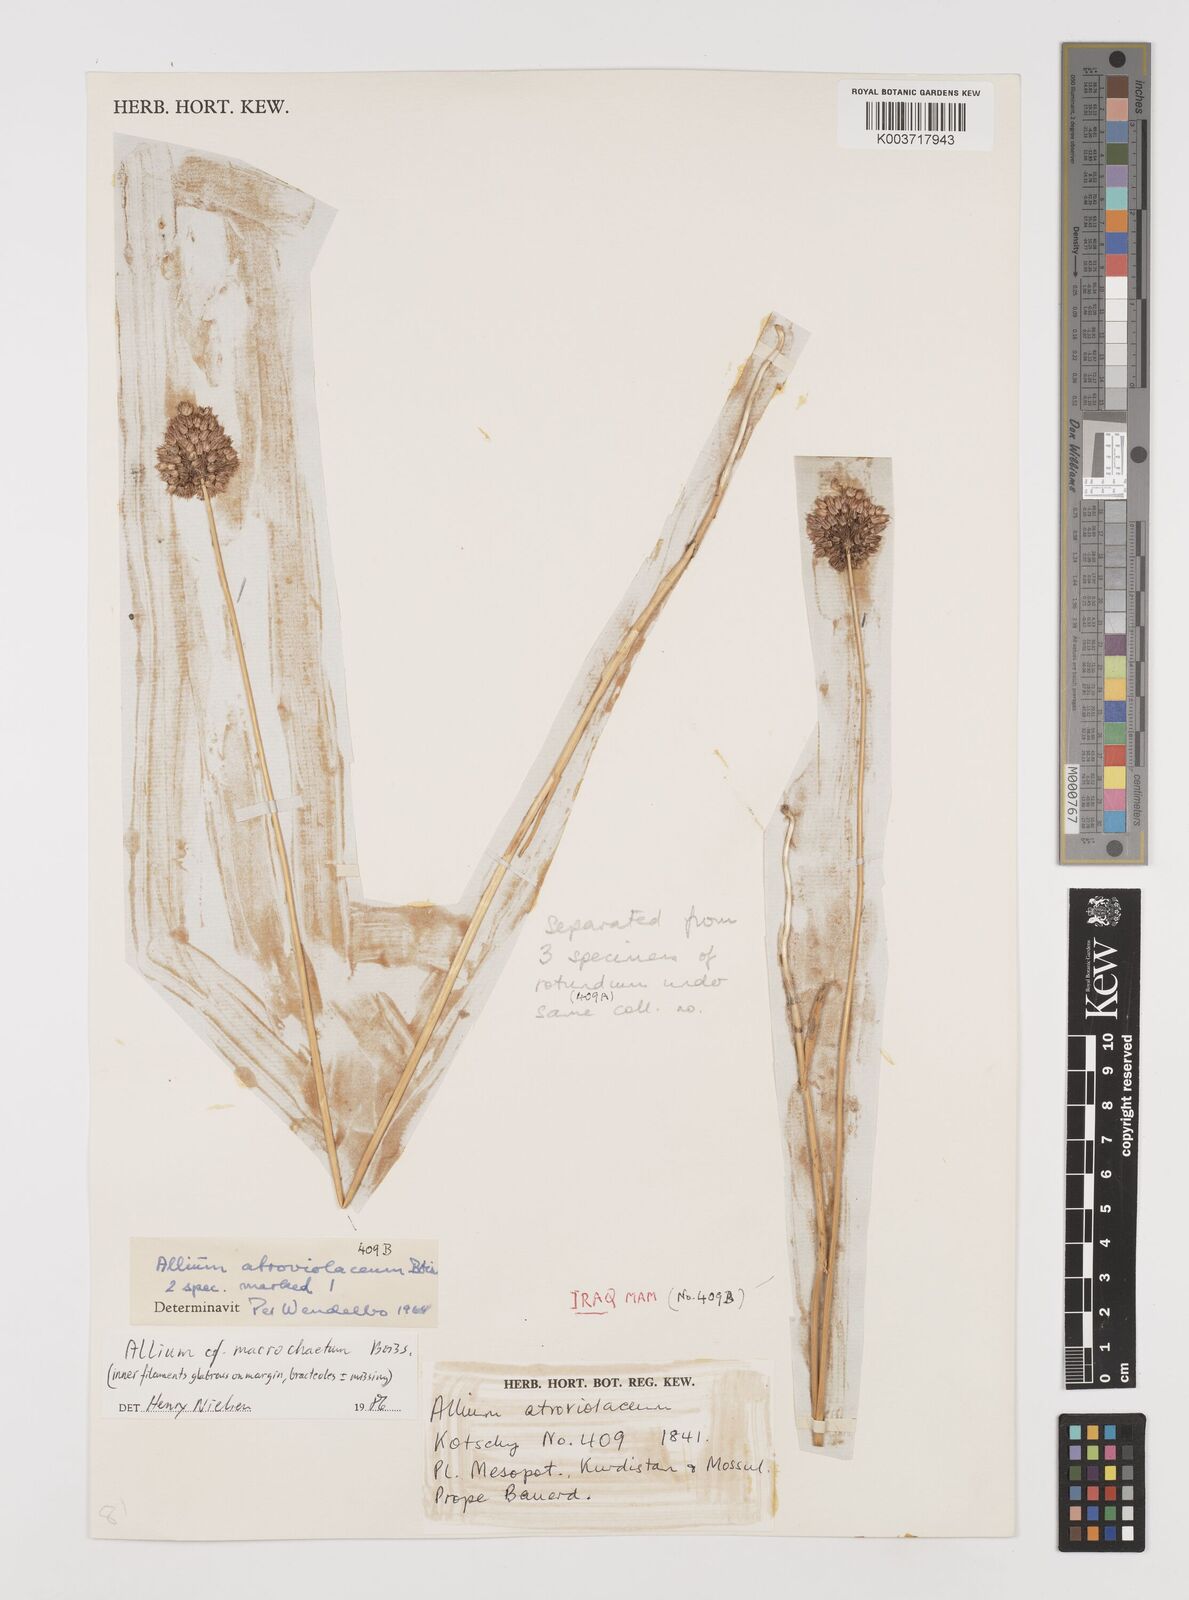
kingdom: Plantae
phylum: Tracheophyta
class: Liliopsida
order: Asparagales
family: Amaryllidaceae
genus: Allium
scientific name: Allium macrochaetum
